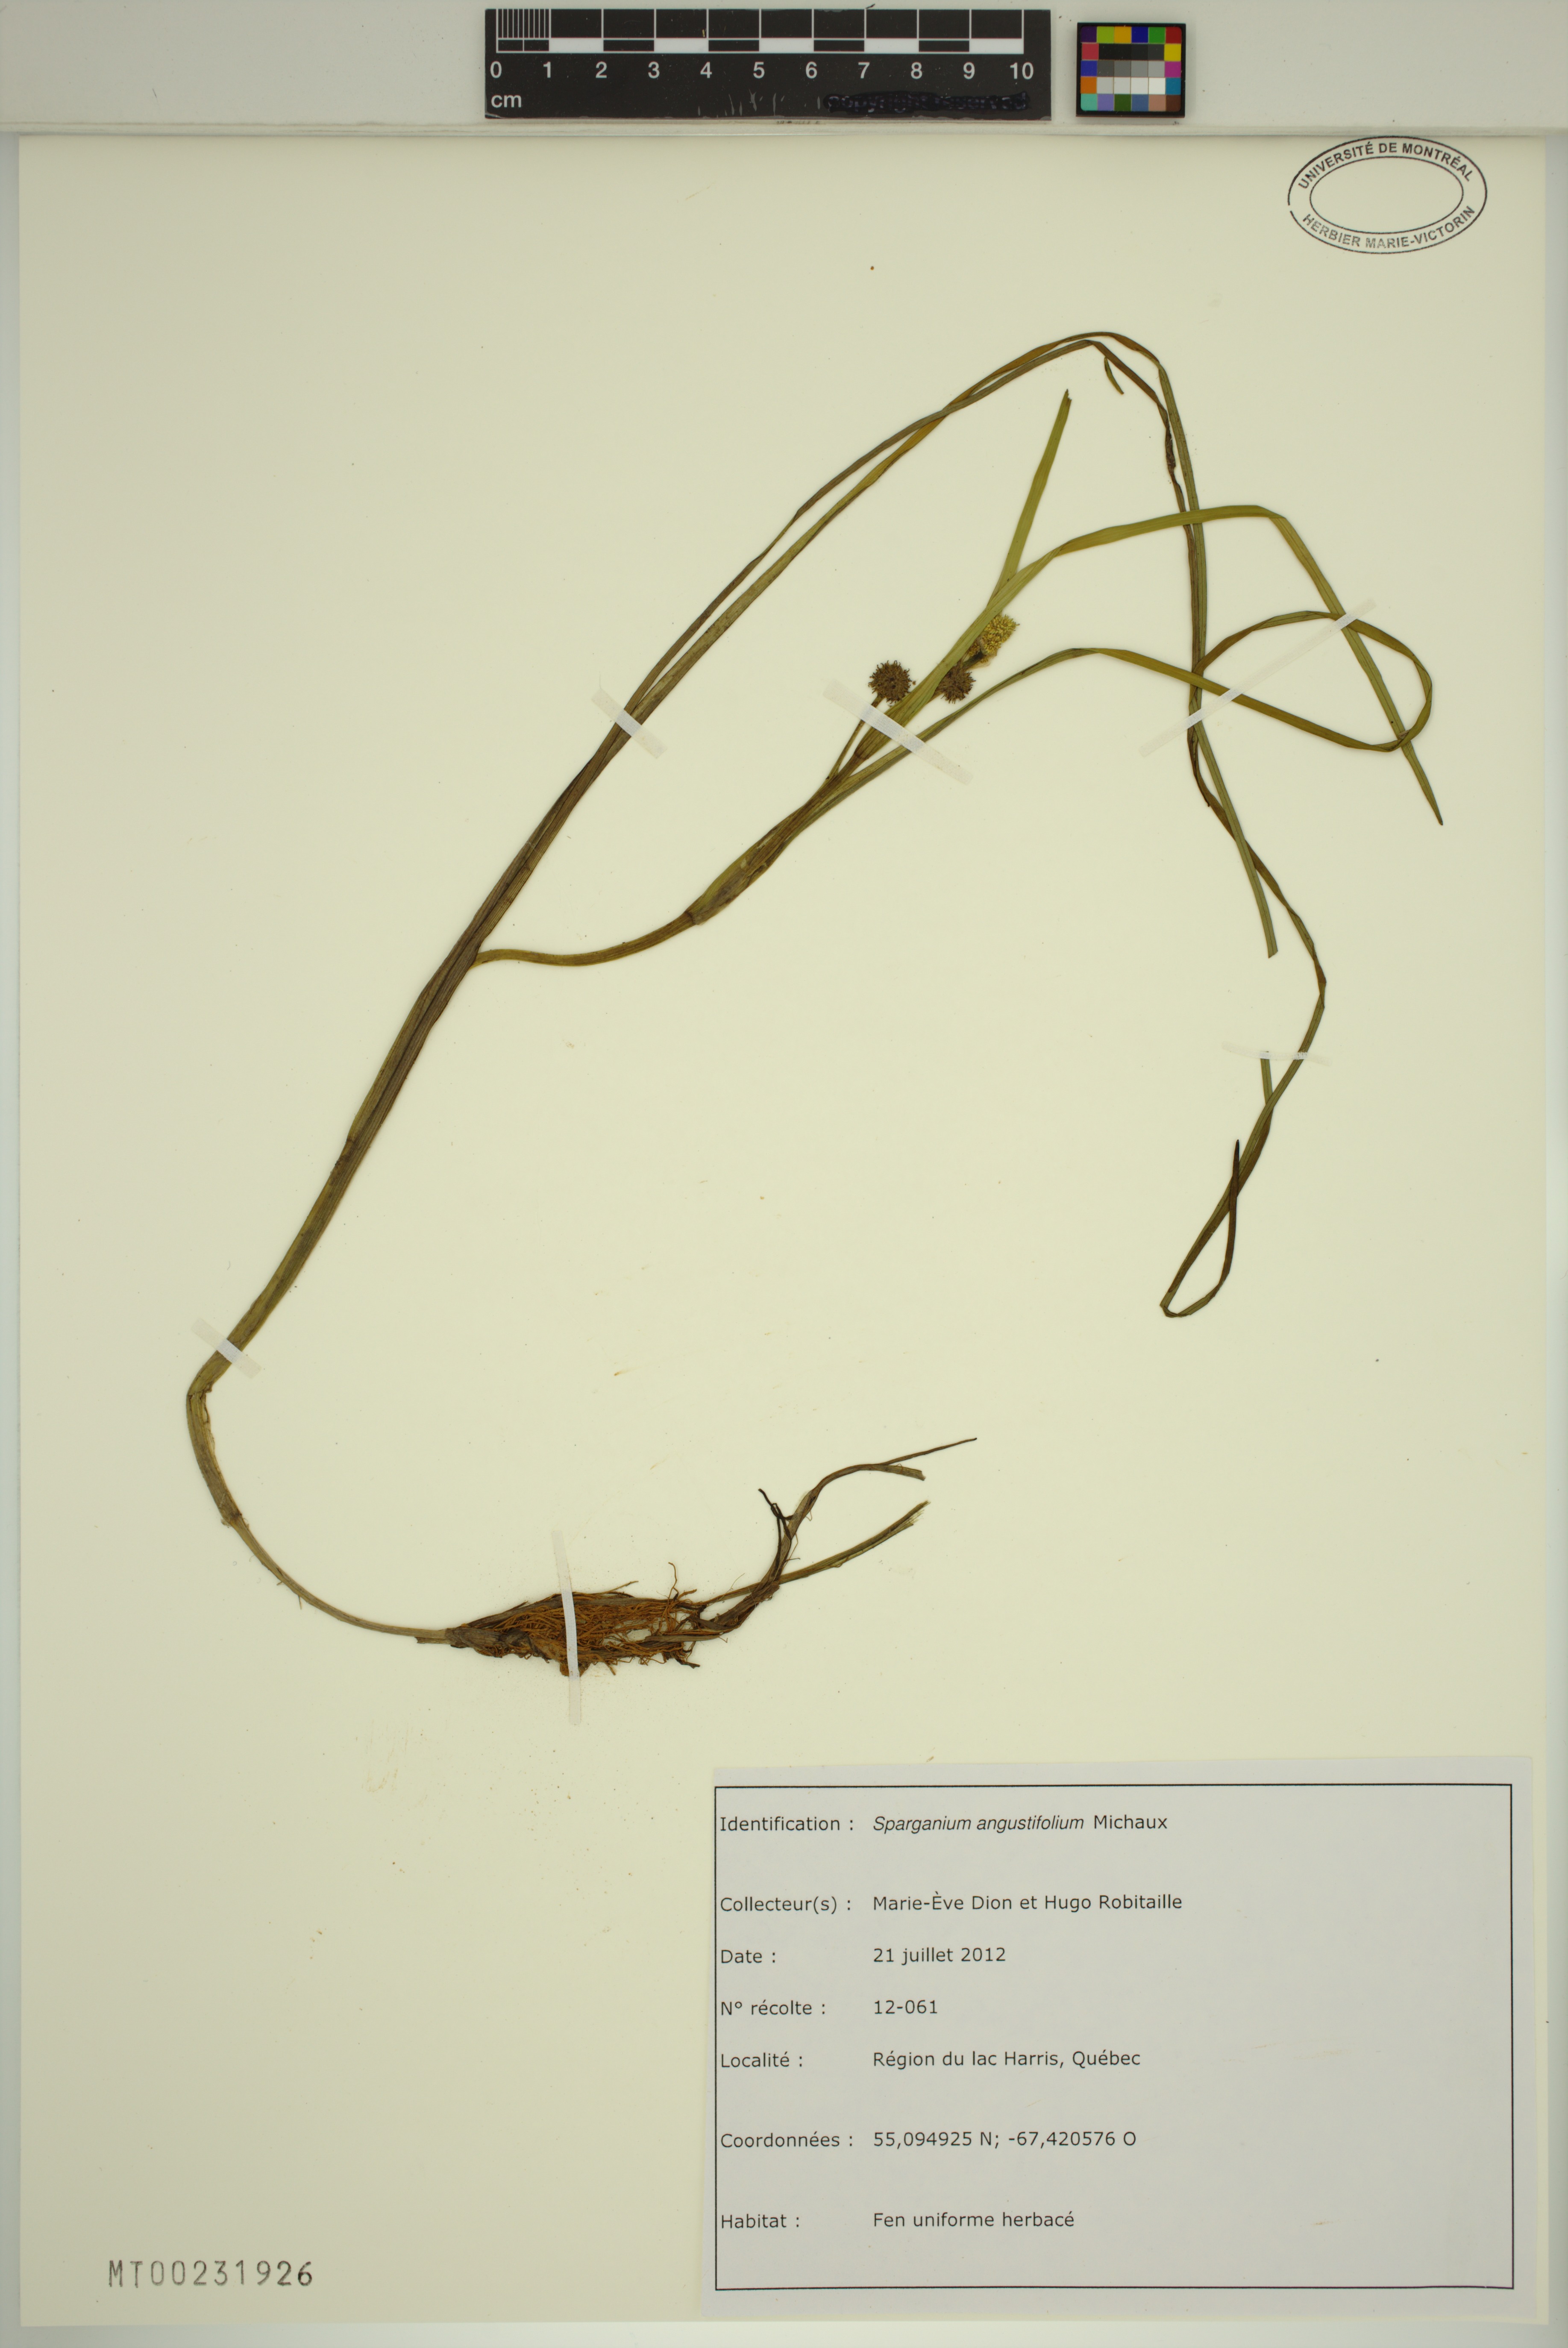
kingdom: Plantae
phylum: Tracheophyta
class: Liliopsida
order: Poales
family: Typhaceae
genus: Sparganium
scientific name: Sparganium angustifolium
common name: Floating bur-reed
